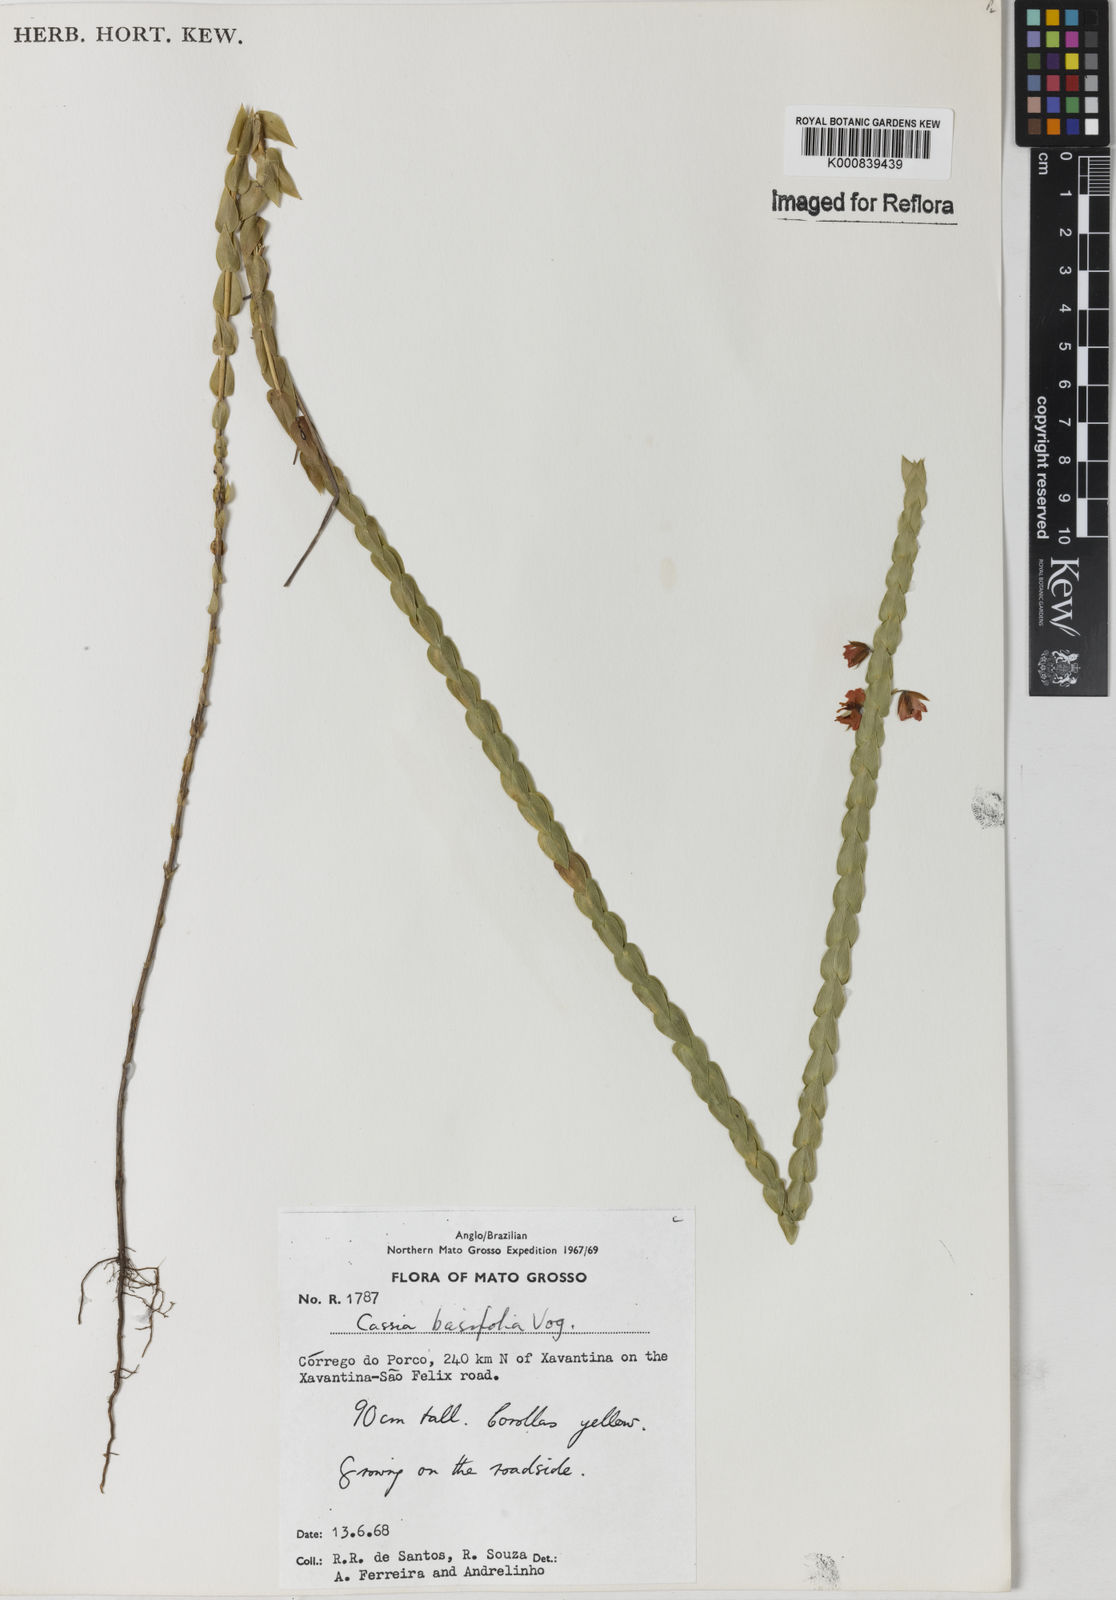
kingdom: Plantae
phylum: Tracheophyta
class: Magnoliopsida
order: Fabales
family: Fabaceae
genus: Chamaecrista
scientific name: Chamaecrista basifolia
